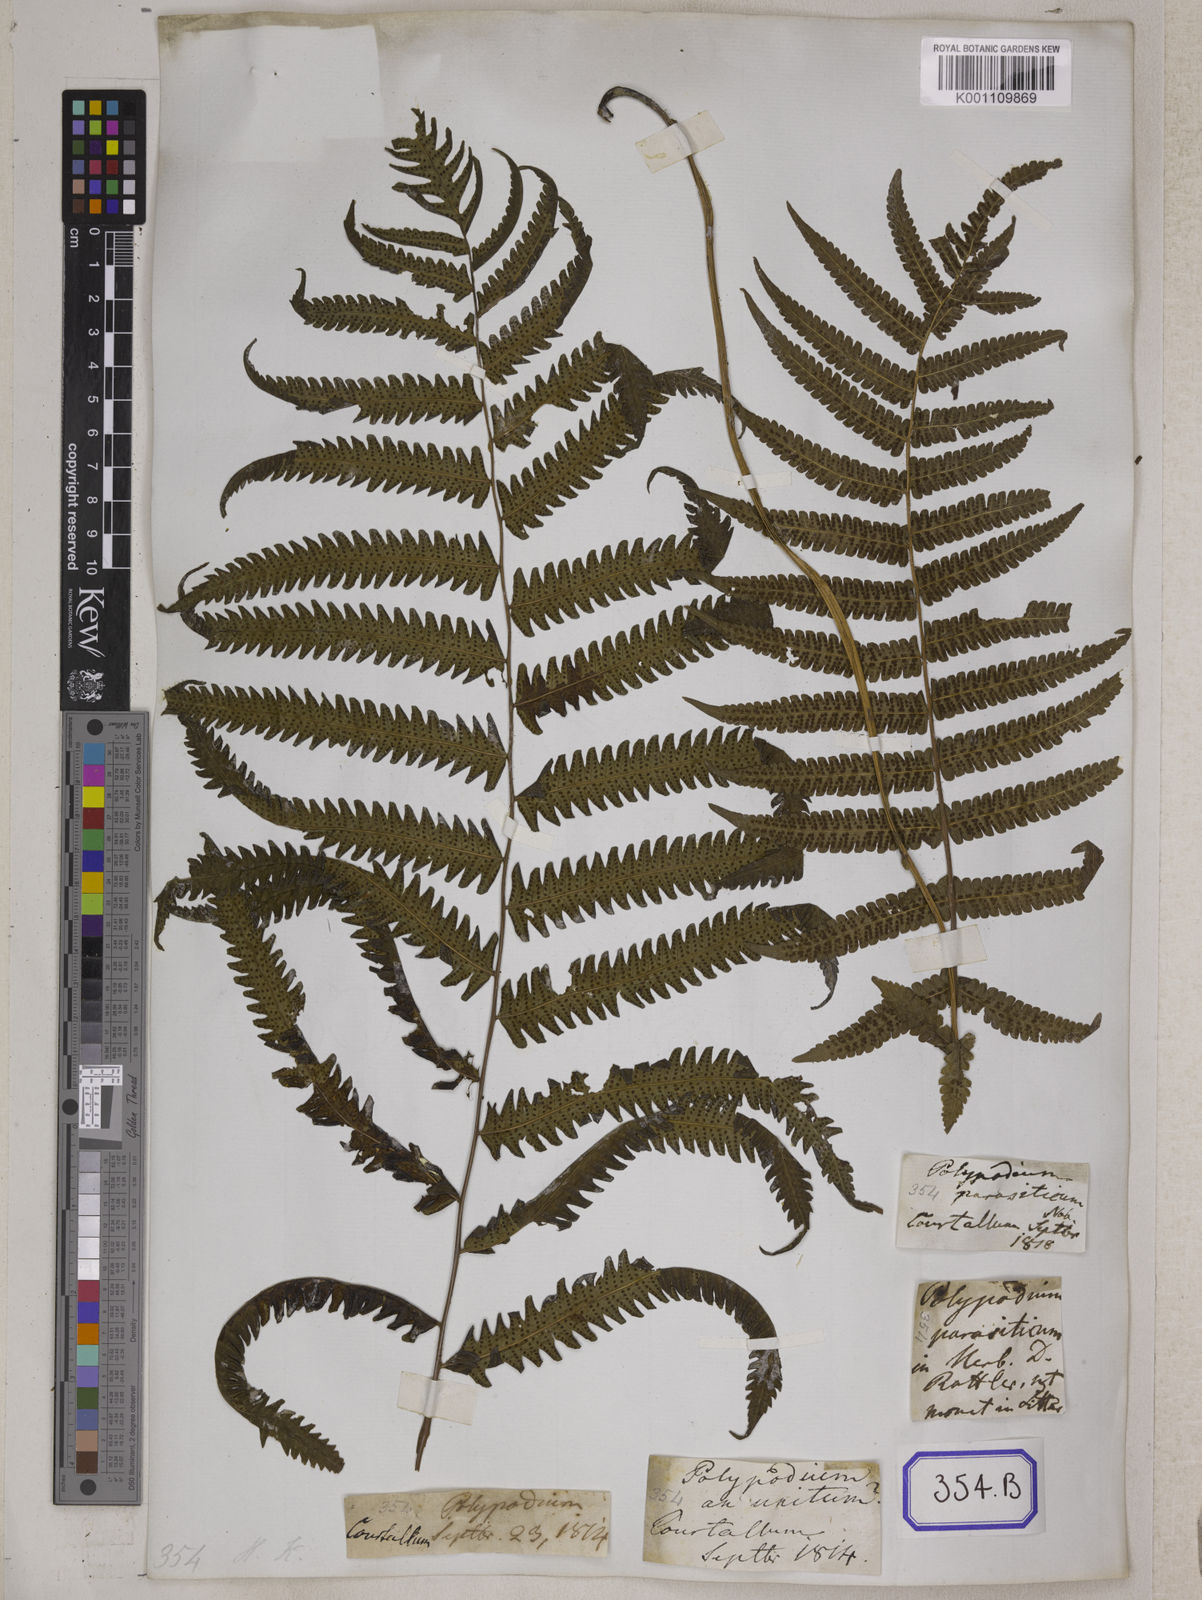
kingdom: Plantae
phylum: Tracheophyta
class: Polypodiopsida
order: Polypodiales
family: Tectariaceae
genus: Tectaria
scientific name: Tectaria Aspidium spec
